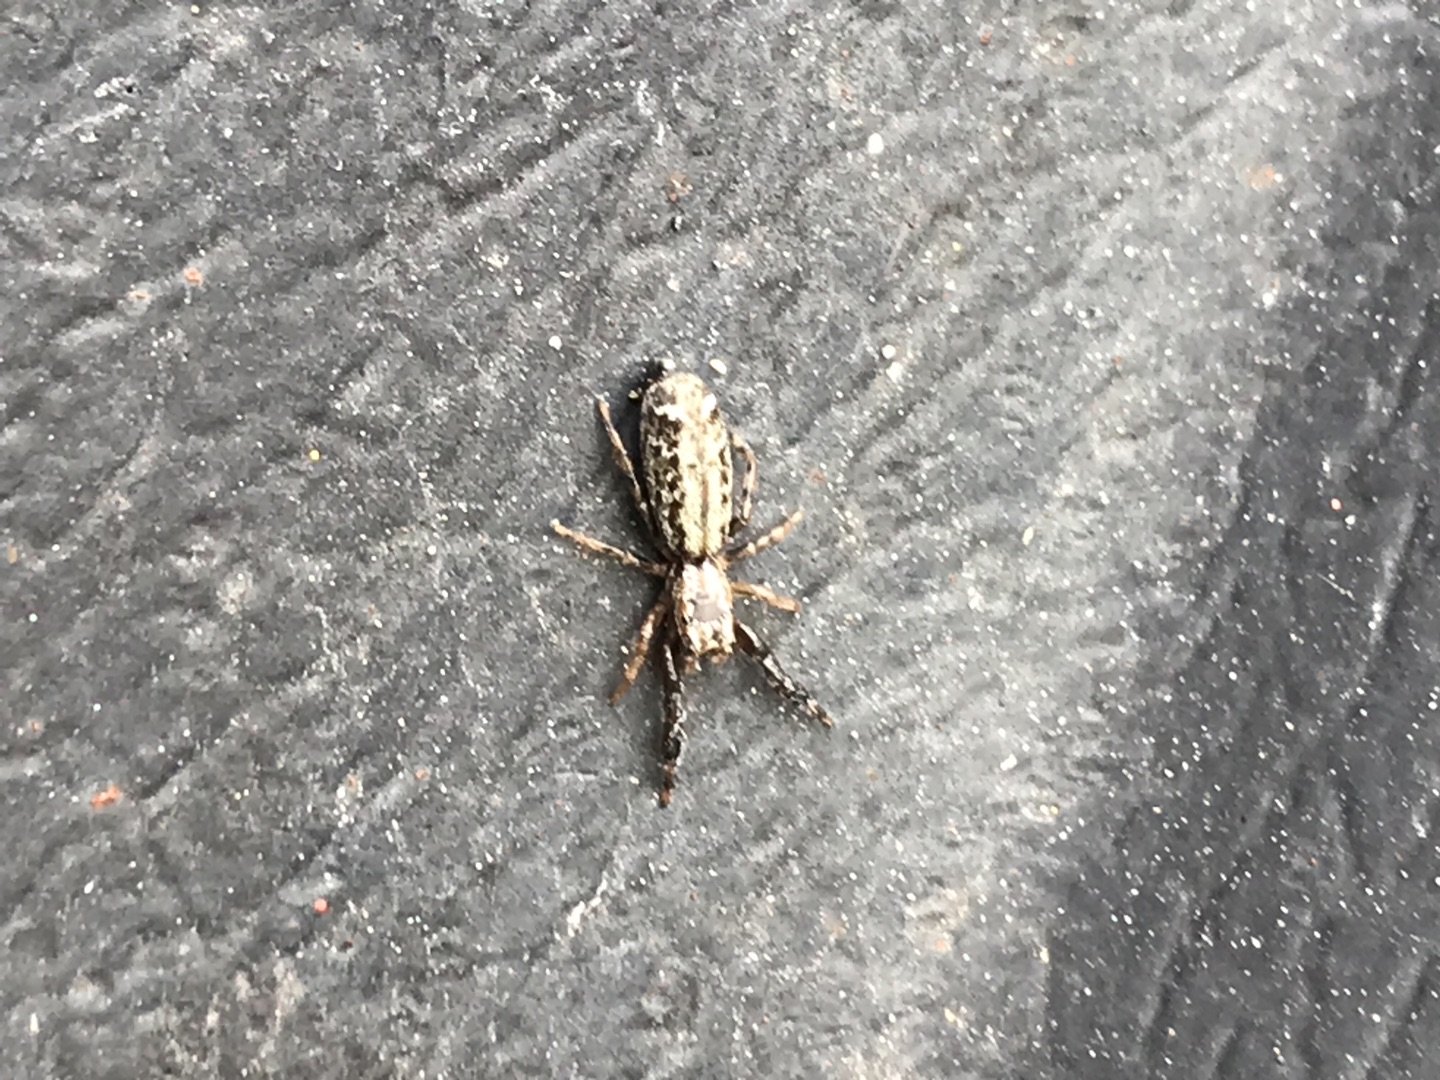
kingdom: Animalia
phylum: Arthropoda
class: Arachnida
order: Araneae
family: Salticidae
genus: Marpissa
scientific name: Marpissa nivoyi
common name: Klitspringedderkop
